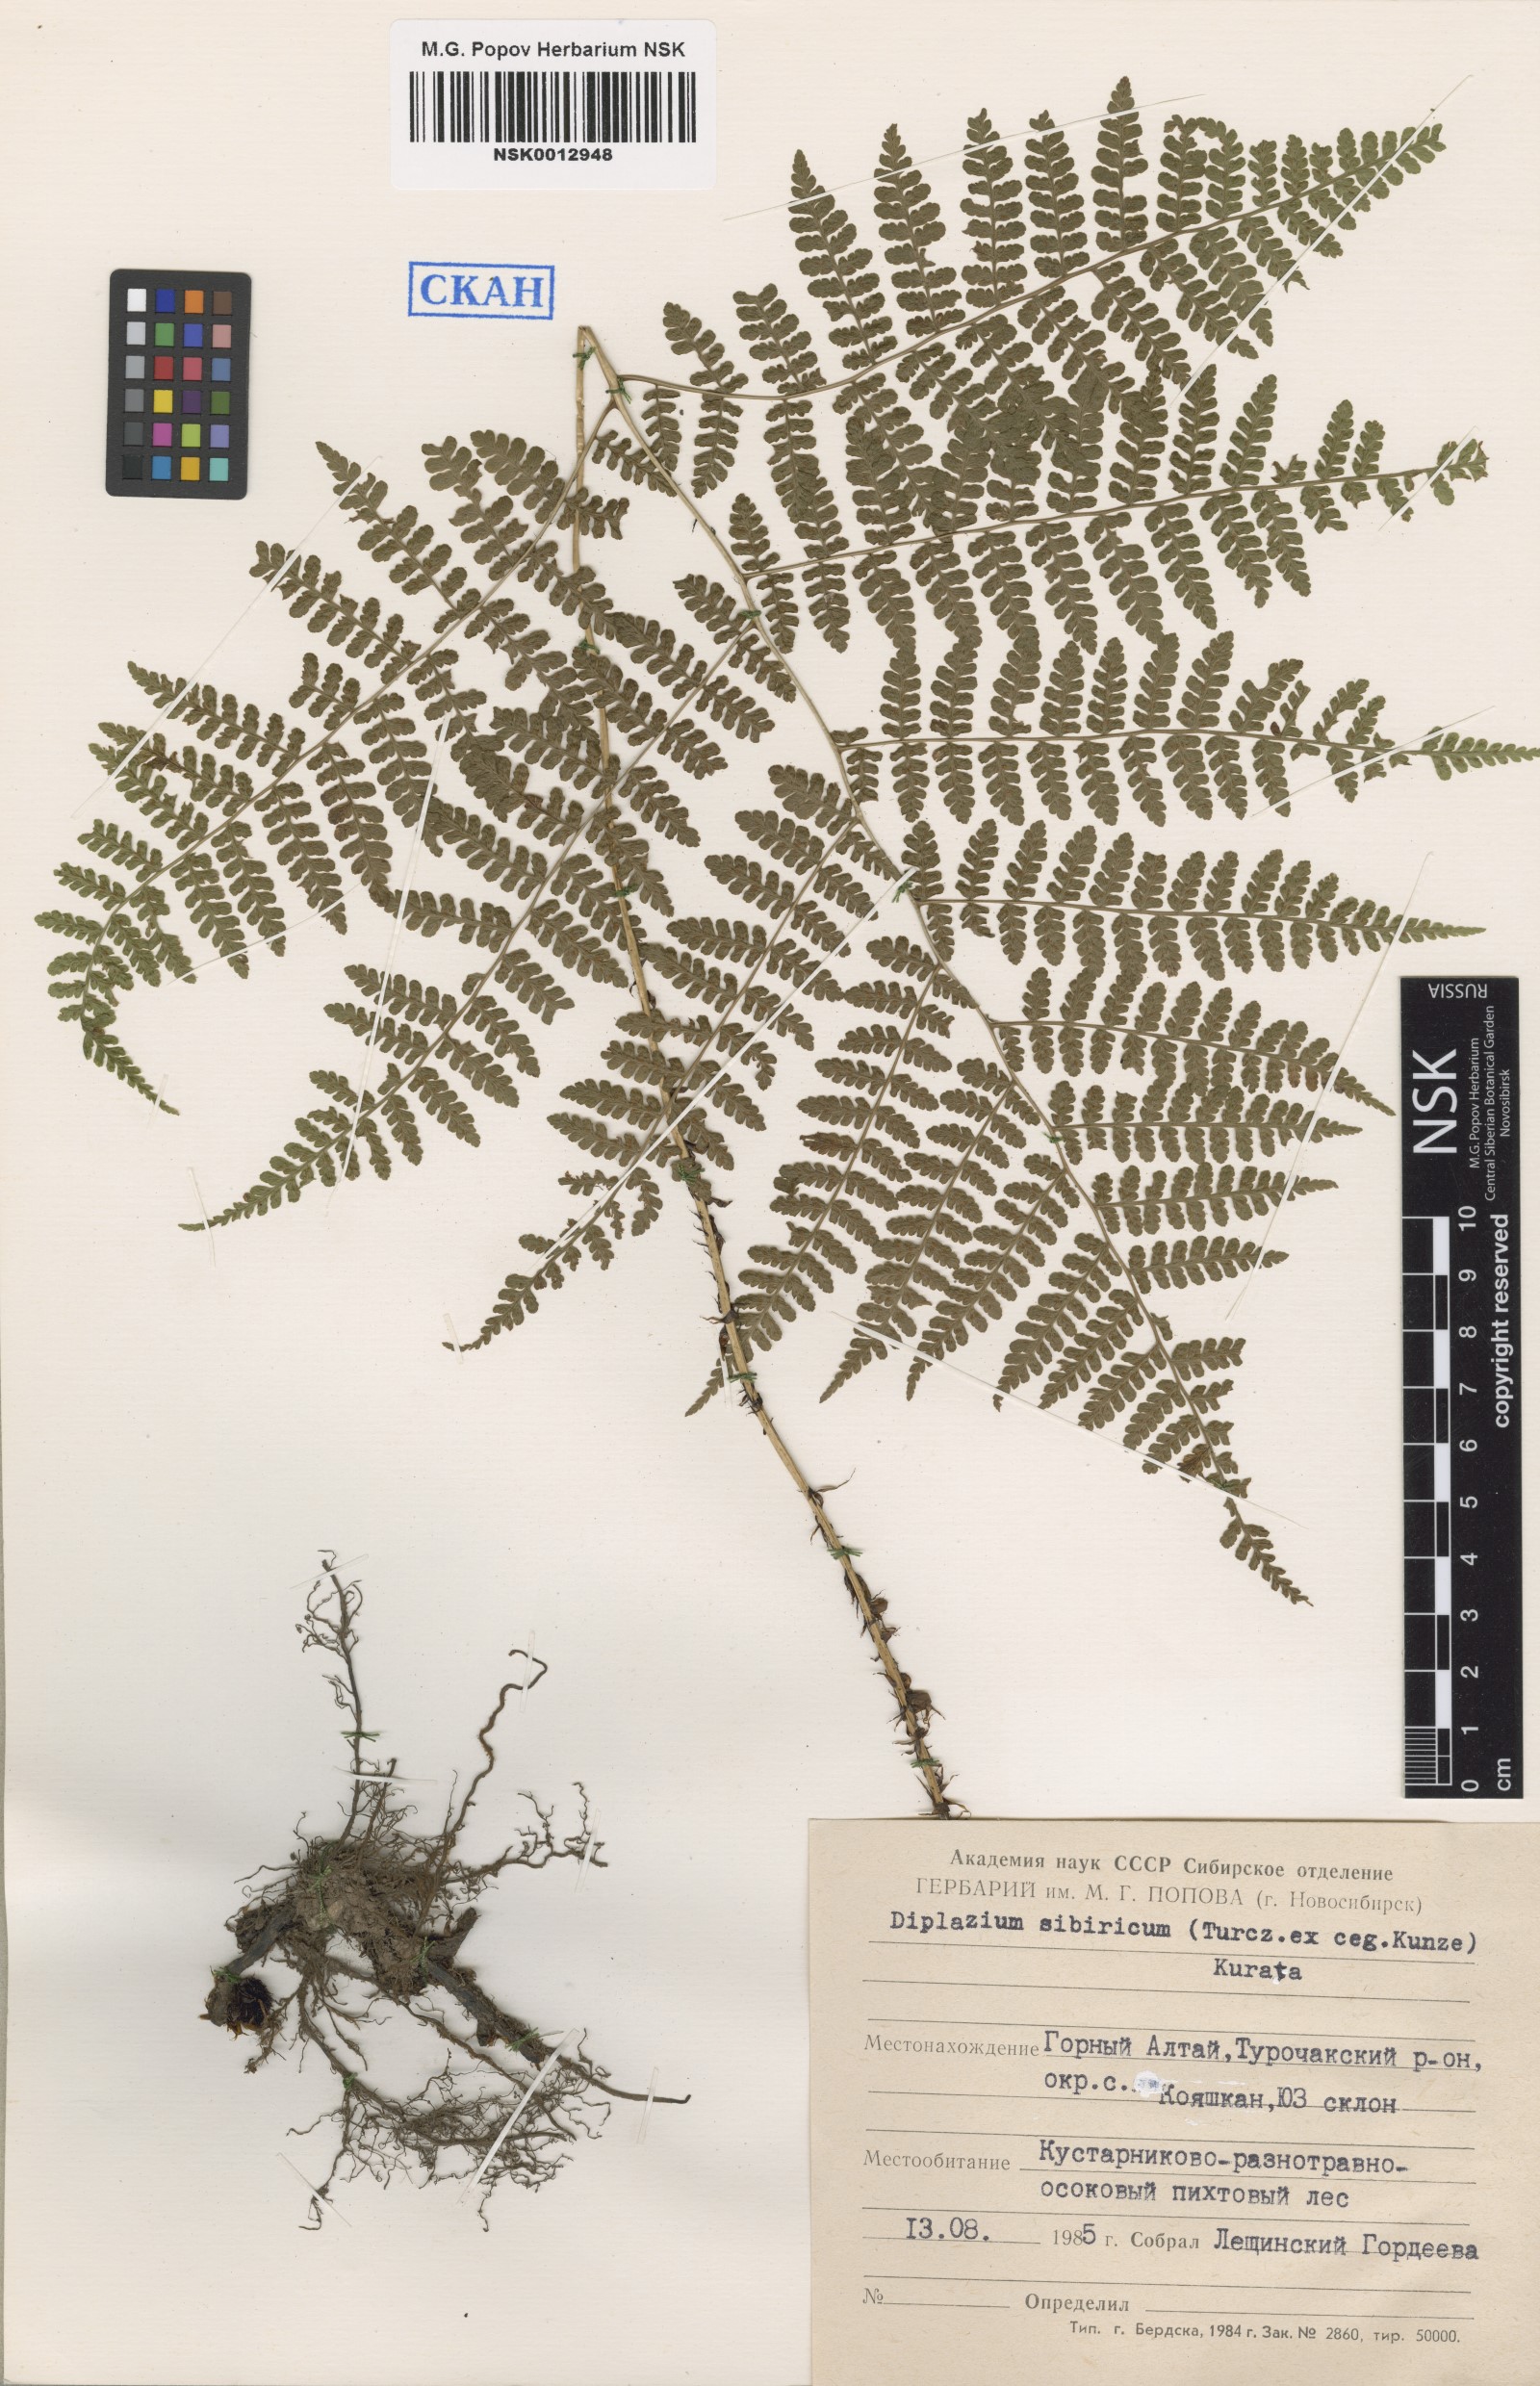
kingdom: Plantae
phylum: Tracheophyta
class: Polypodiopsida
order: Polypodiales
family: Athyriaceae
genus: Diplazium
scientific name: Diplazium sibiricum
